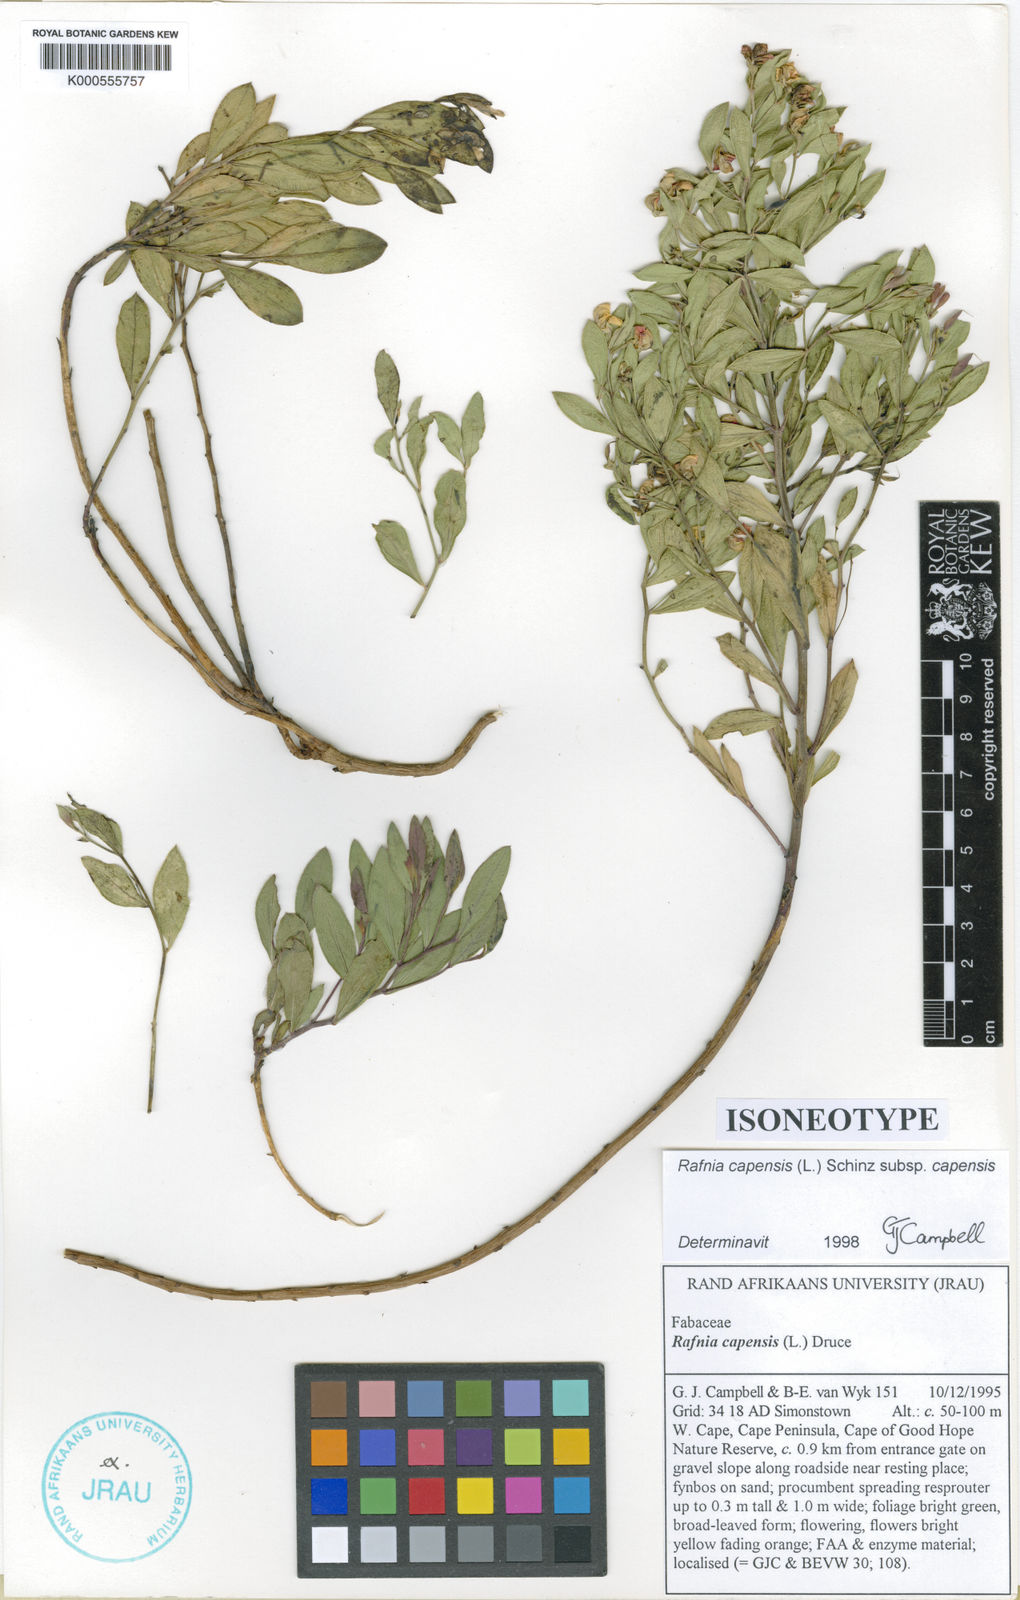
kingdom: Plantae
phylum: Tracheophyta
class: Magnoliopsida
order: Fabales
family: Fabaceae
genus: Rafnia
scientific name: Rafnia capensis
